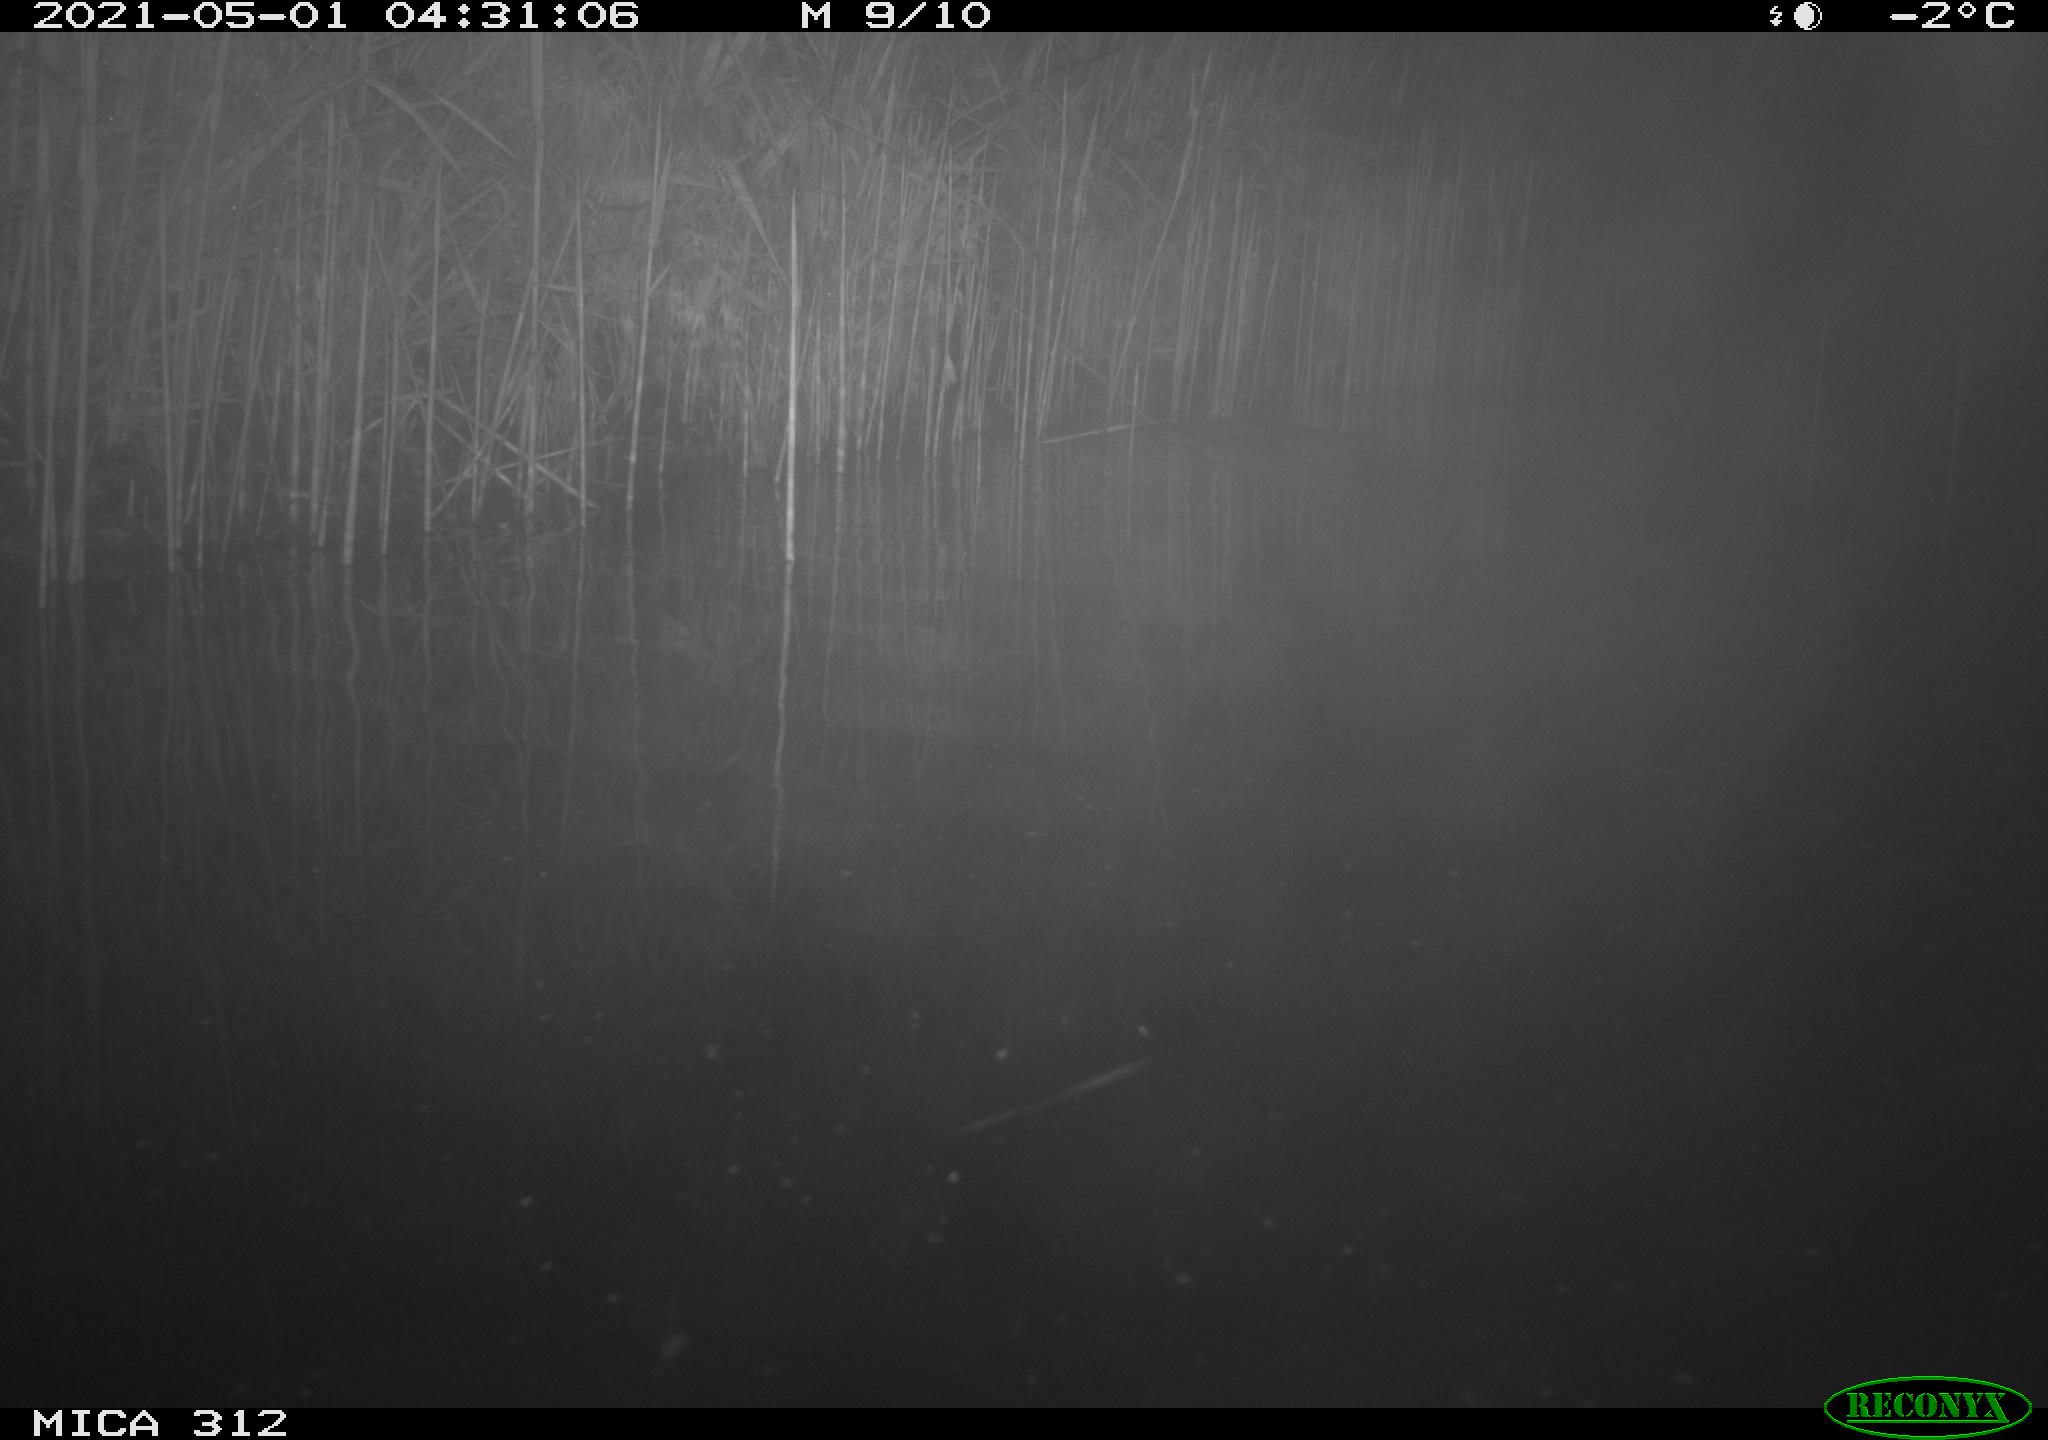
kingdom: Animalia
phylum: Chordata
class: Mammalia
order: Rodentia
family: Cricetidae
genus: Ondatra
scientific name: Ondatra zibethicus
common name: Muskrat
